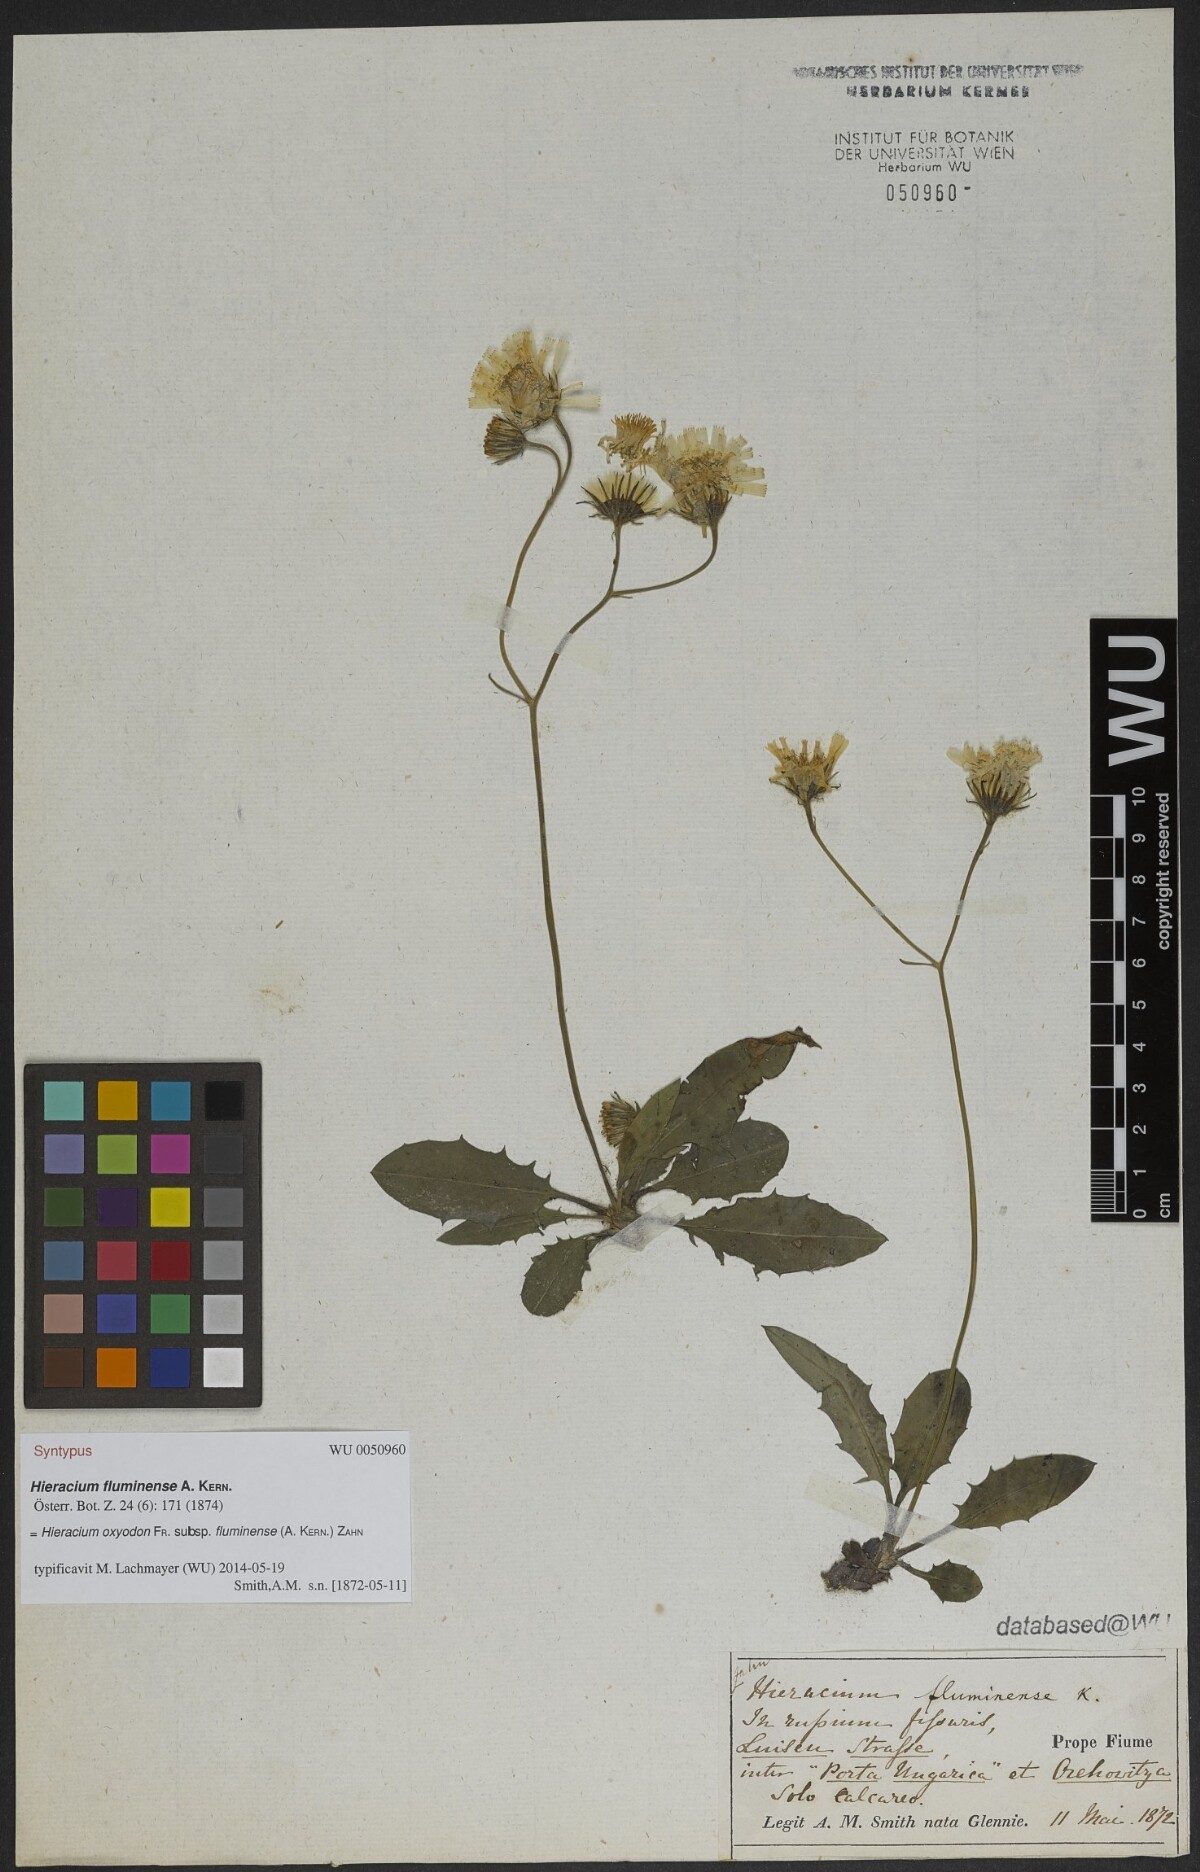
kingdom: Plantae
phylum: Tracheophyta
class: Magnoliopsida
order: Asterales
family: Asteraceae
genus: Hieracium
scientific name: Hieracium oxyodon
